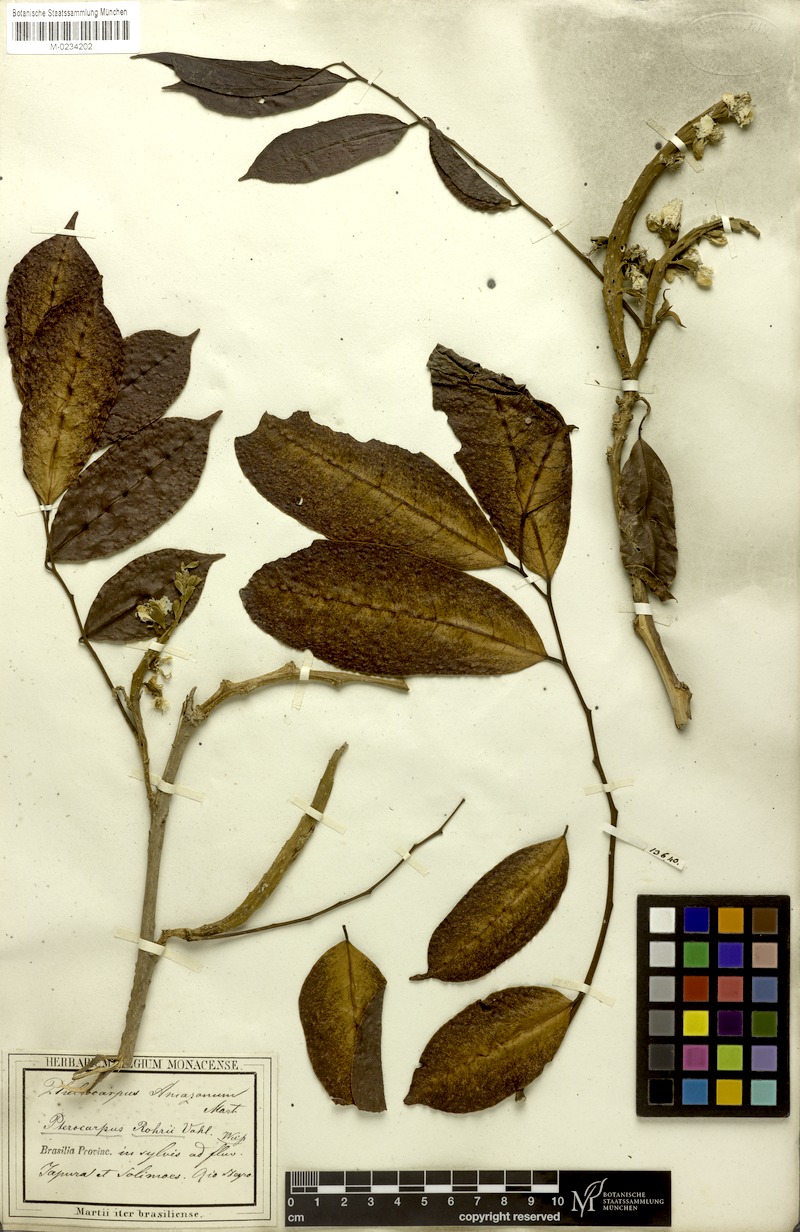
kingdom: Plantae
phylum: Tracheophyta
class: Magnoliopsida
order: Fabales
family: Fabaceae
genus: Pterocarpus
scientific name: Pterocarpus amazonum
